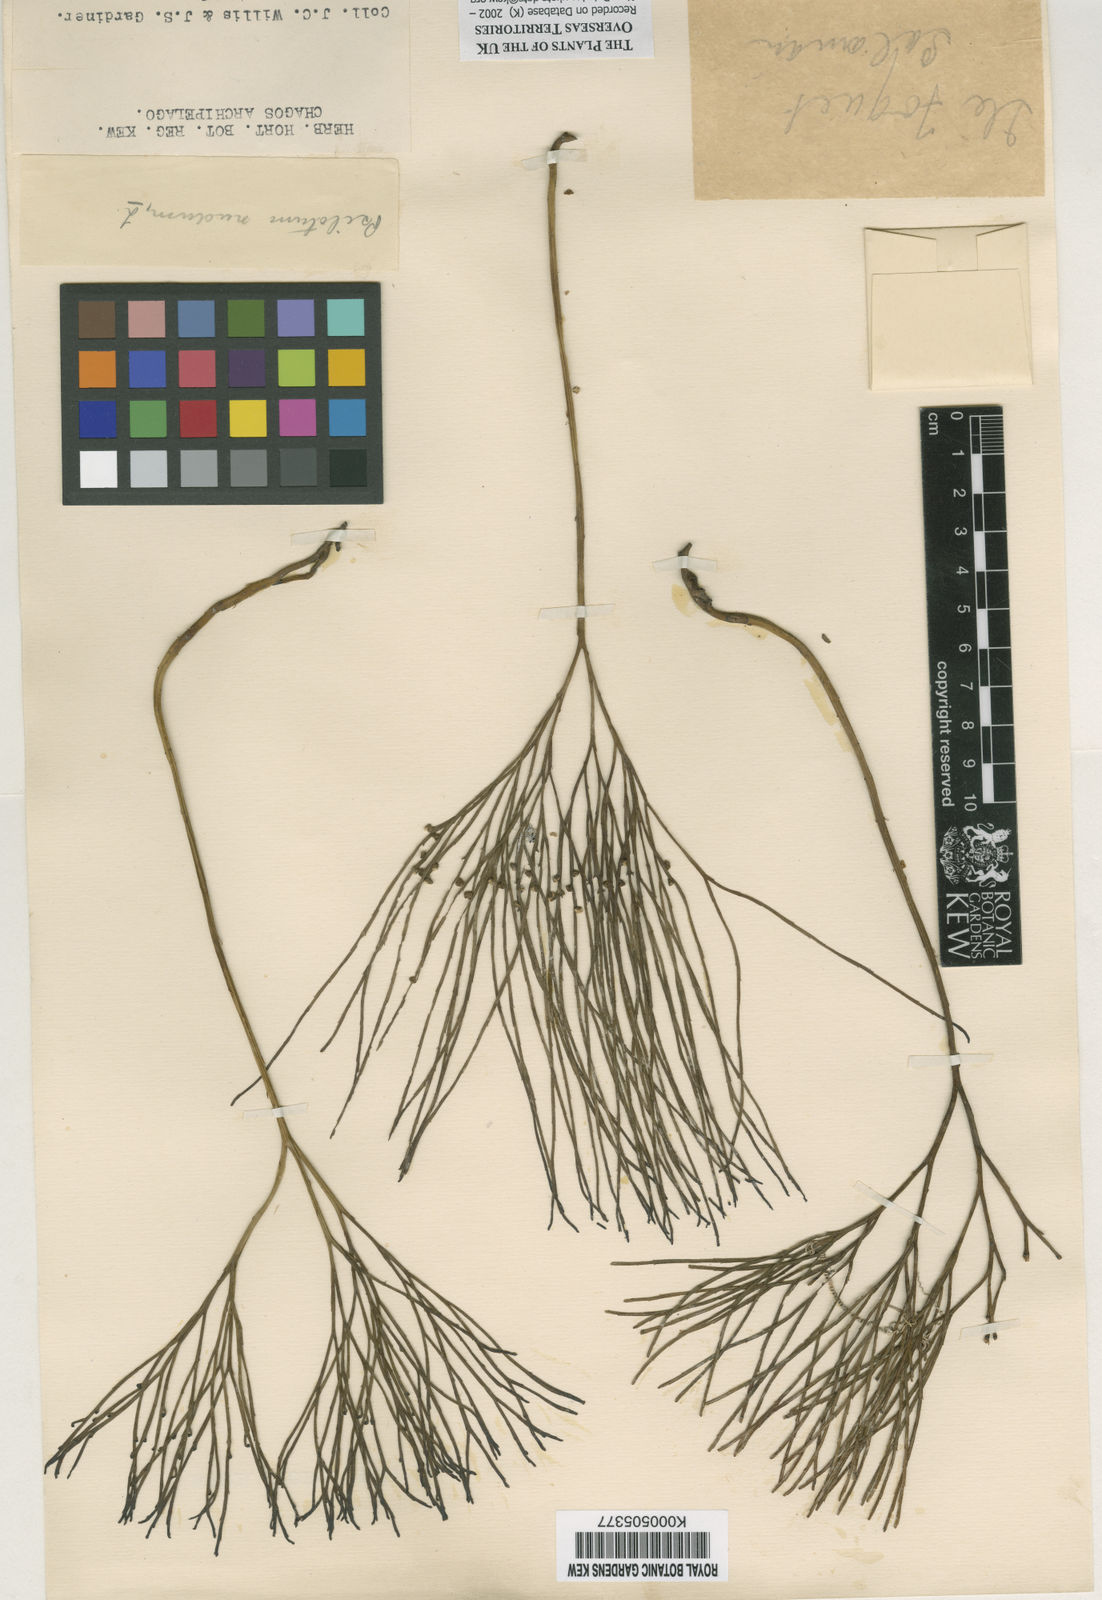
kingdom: Plantae
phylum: Tracheophyta
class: Polypodiopsida
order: Psilotales
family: Psilotaceae
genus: Psilotum
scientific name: Psilotum
